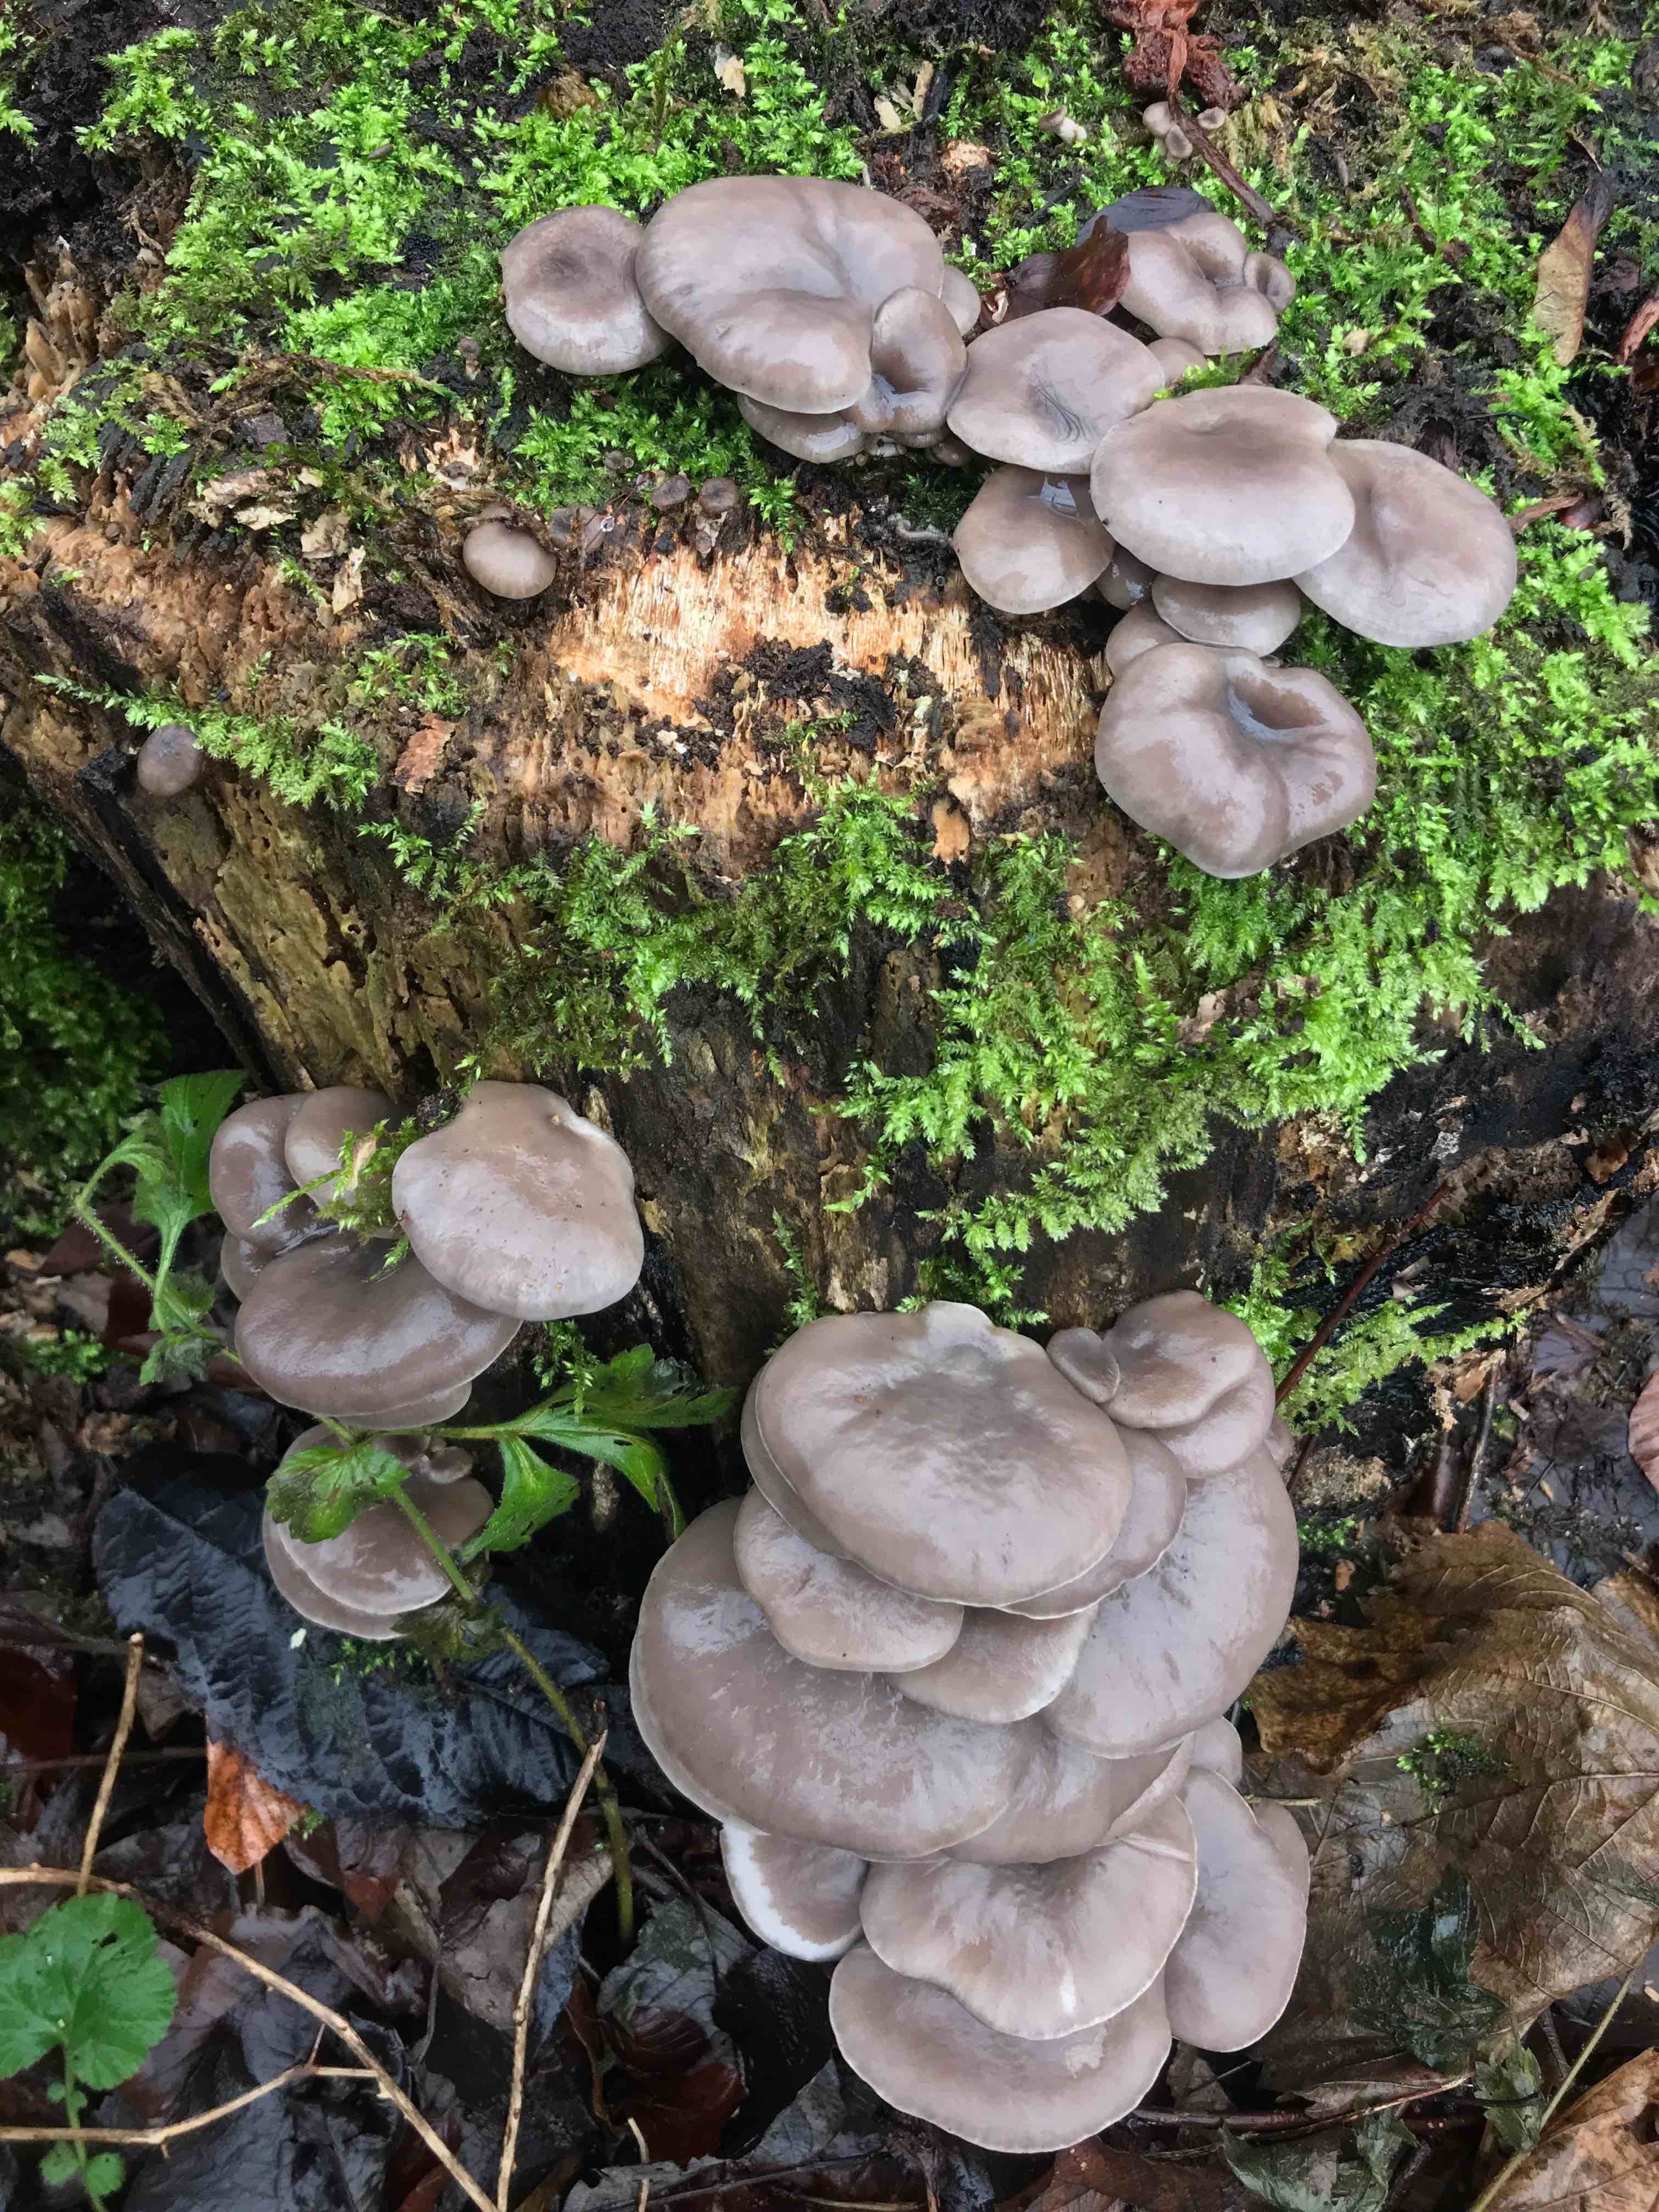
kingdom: Fungi
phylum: Basidiomycota
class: Agaricomycetes
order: Agaricales
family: Pleurotaceae
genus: Pleurotus
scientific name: Pleurotus ostreatus
